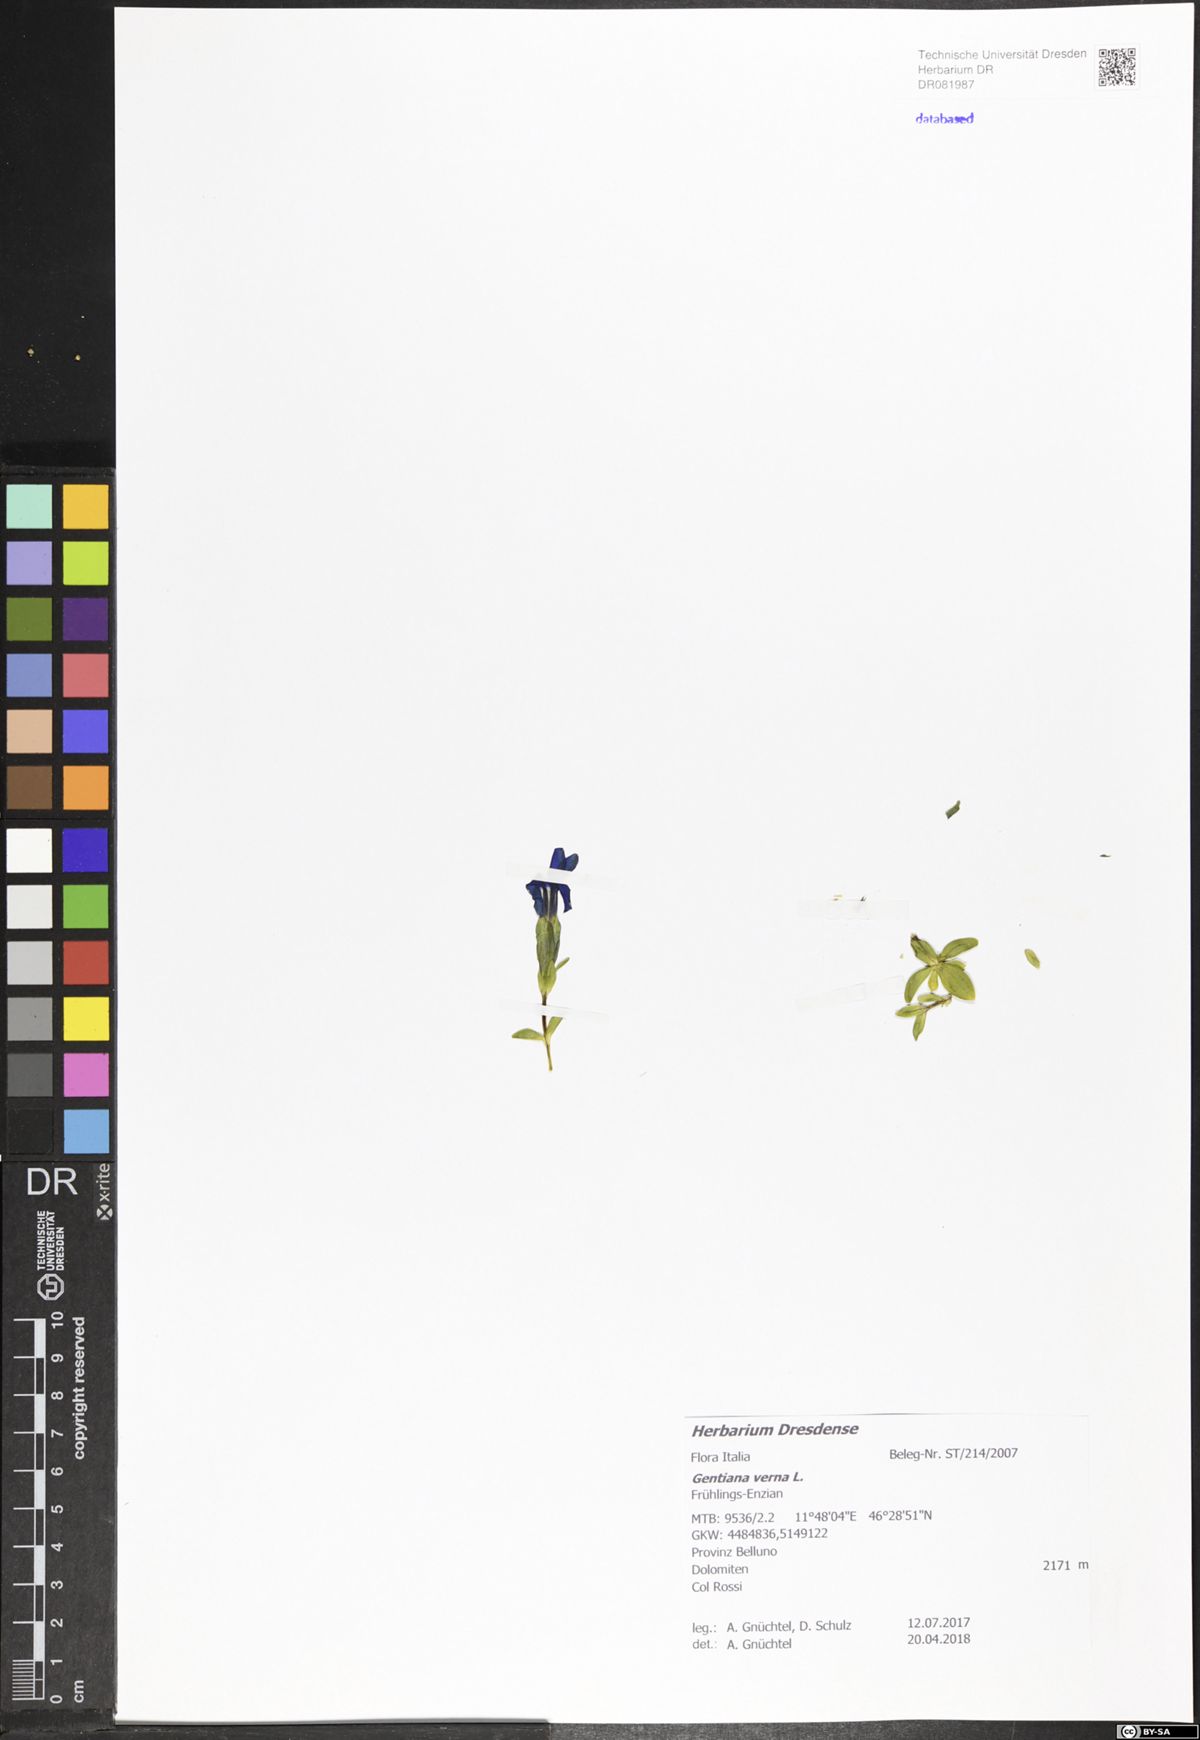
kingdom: Plantae
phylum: Tracheophyta
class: Magnoliopsida
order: Gentianales
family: Gentianaceae
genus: Gentiana
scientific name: Gentiana verna
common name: Spring gentian
